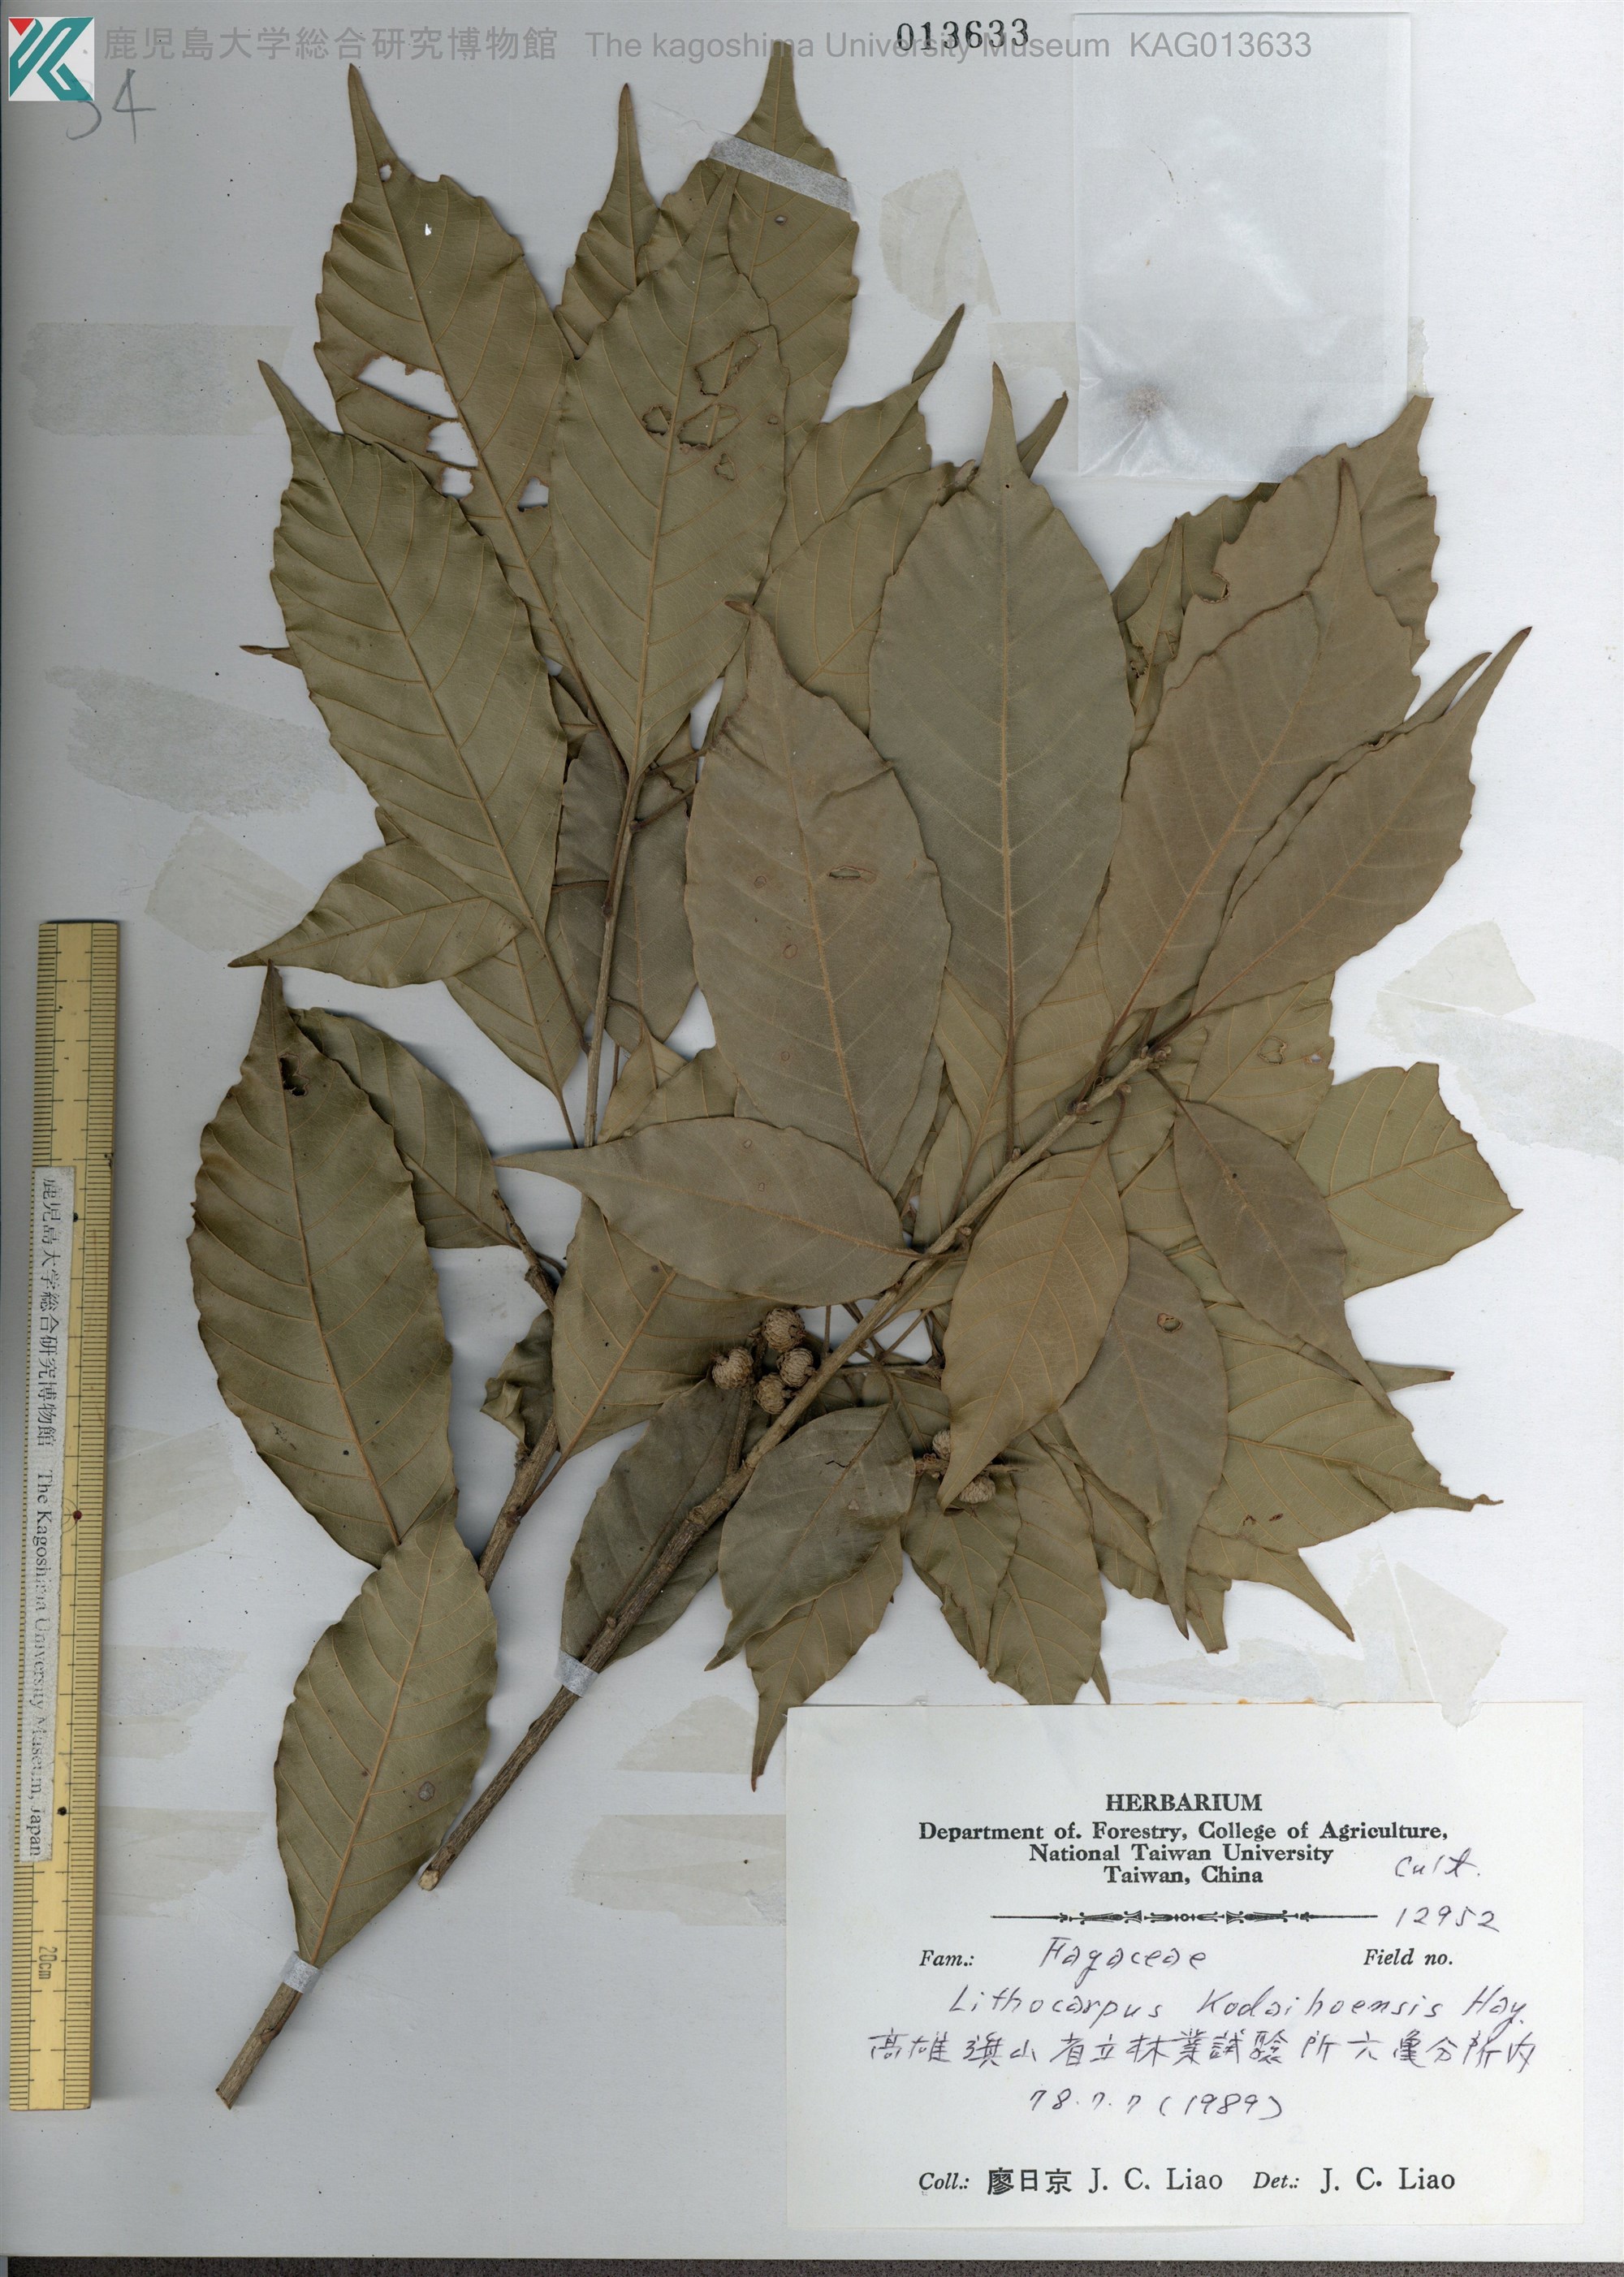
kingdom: Plantae
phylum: Tracheophyta
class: Magnoliopsida
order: Fagales
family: Fagaceae
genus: Lithocarpus
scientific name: Lithocarpus corneus
